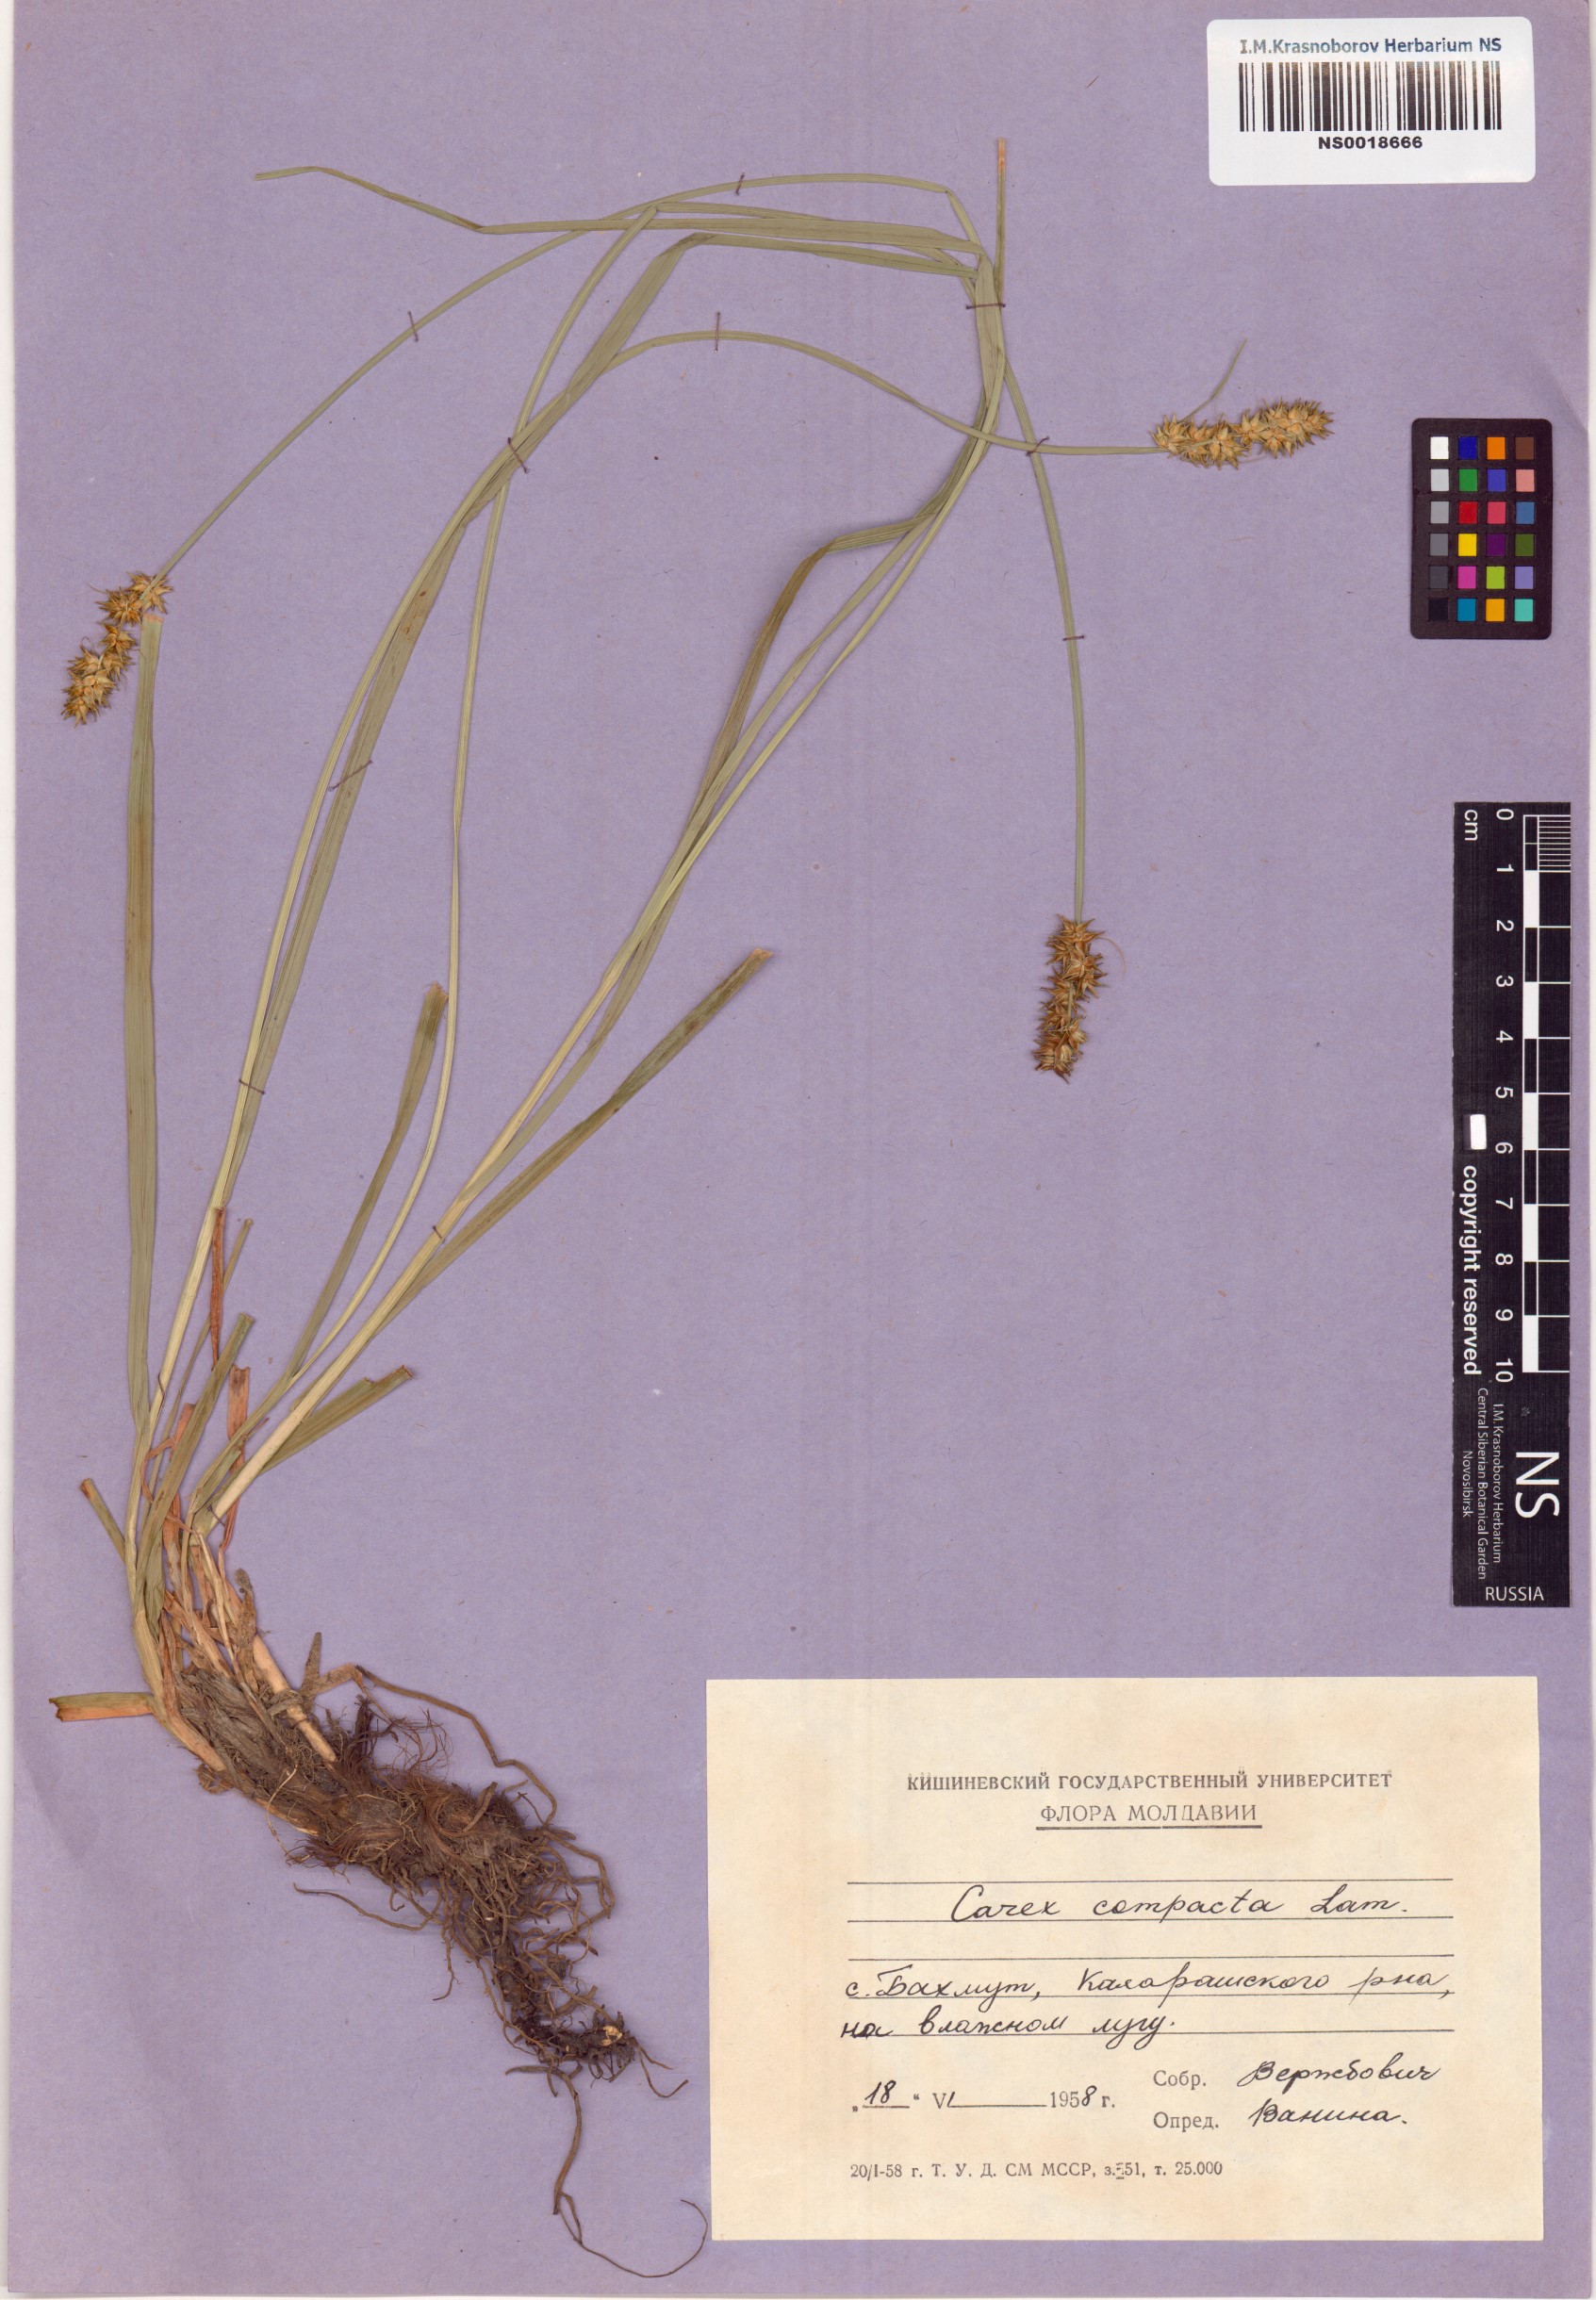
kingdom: Plantae
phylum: Tracheophyta
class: Liliopsida
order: Poales
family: Cyperaceae
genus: Carex
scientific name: Carex vulpina
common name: True fox-sedge
